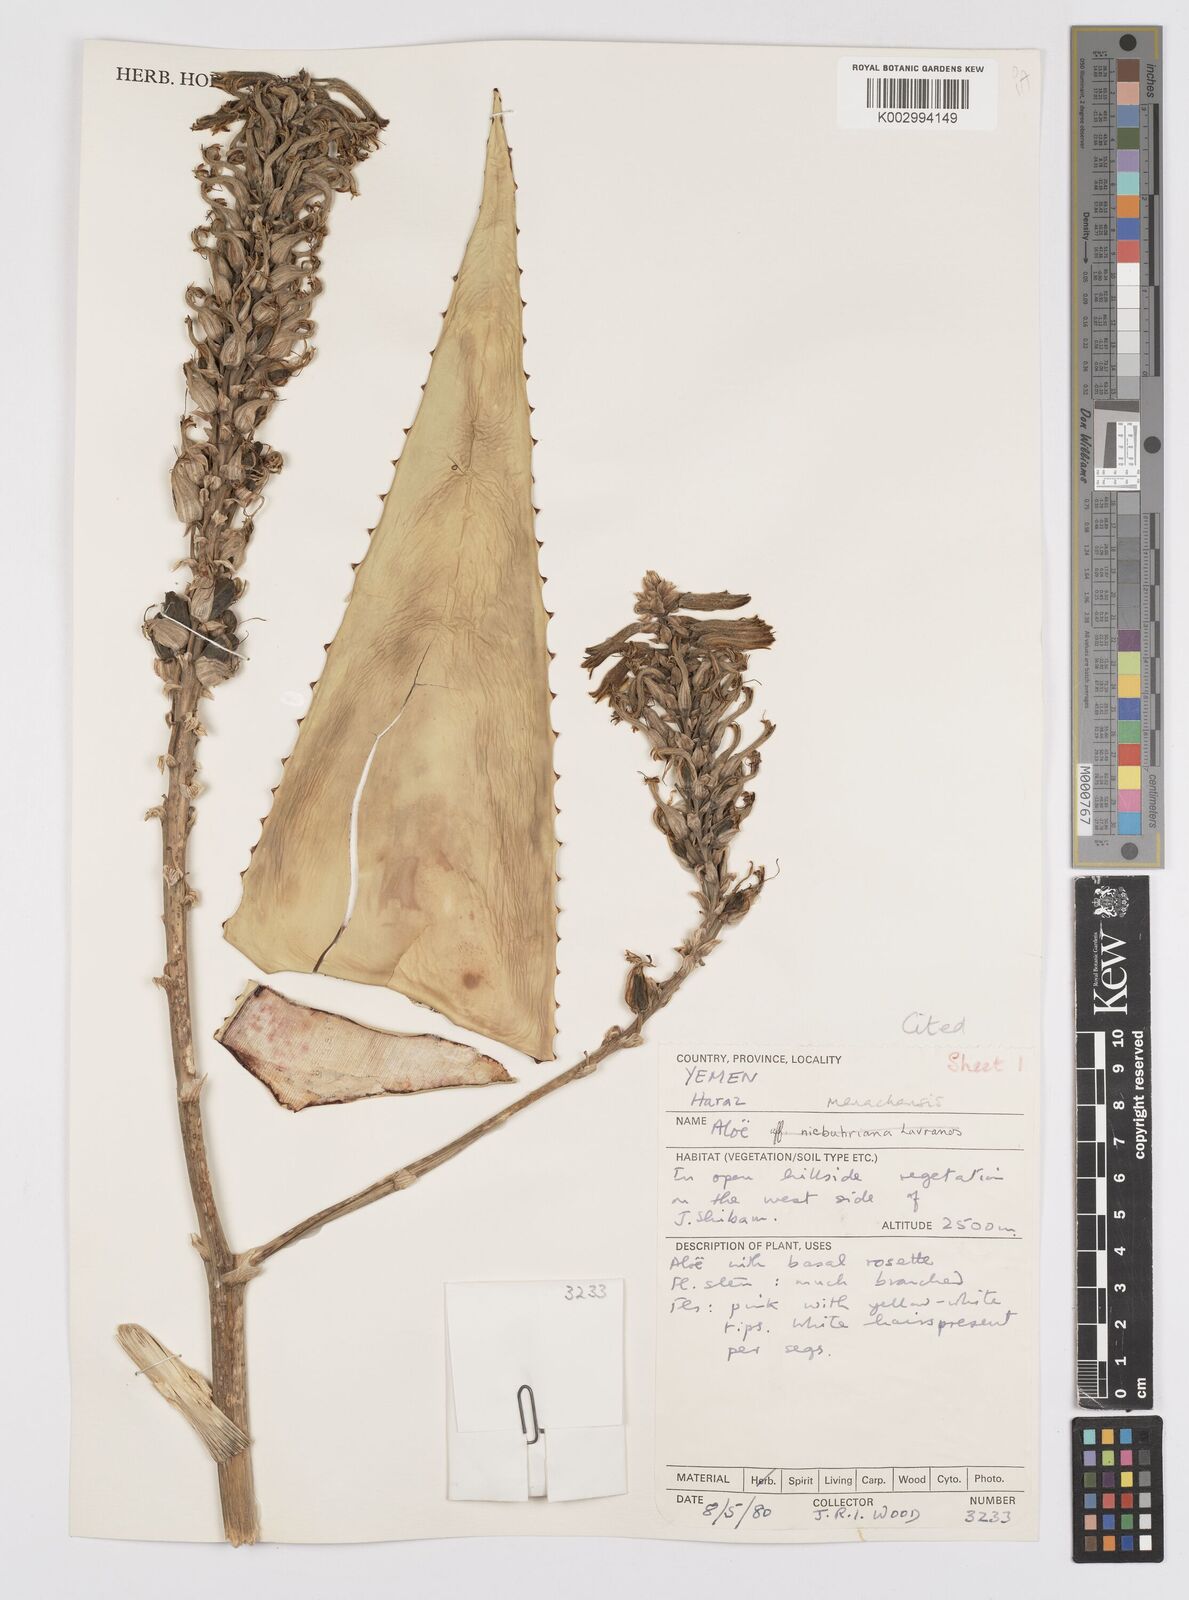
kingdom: Plantae
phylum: Tracheophyta
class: Liliopsida
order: Asparagales
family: Asphodelaceae
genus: Aloe
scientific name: Aloe menachensis
